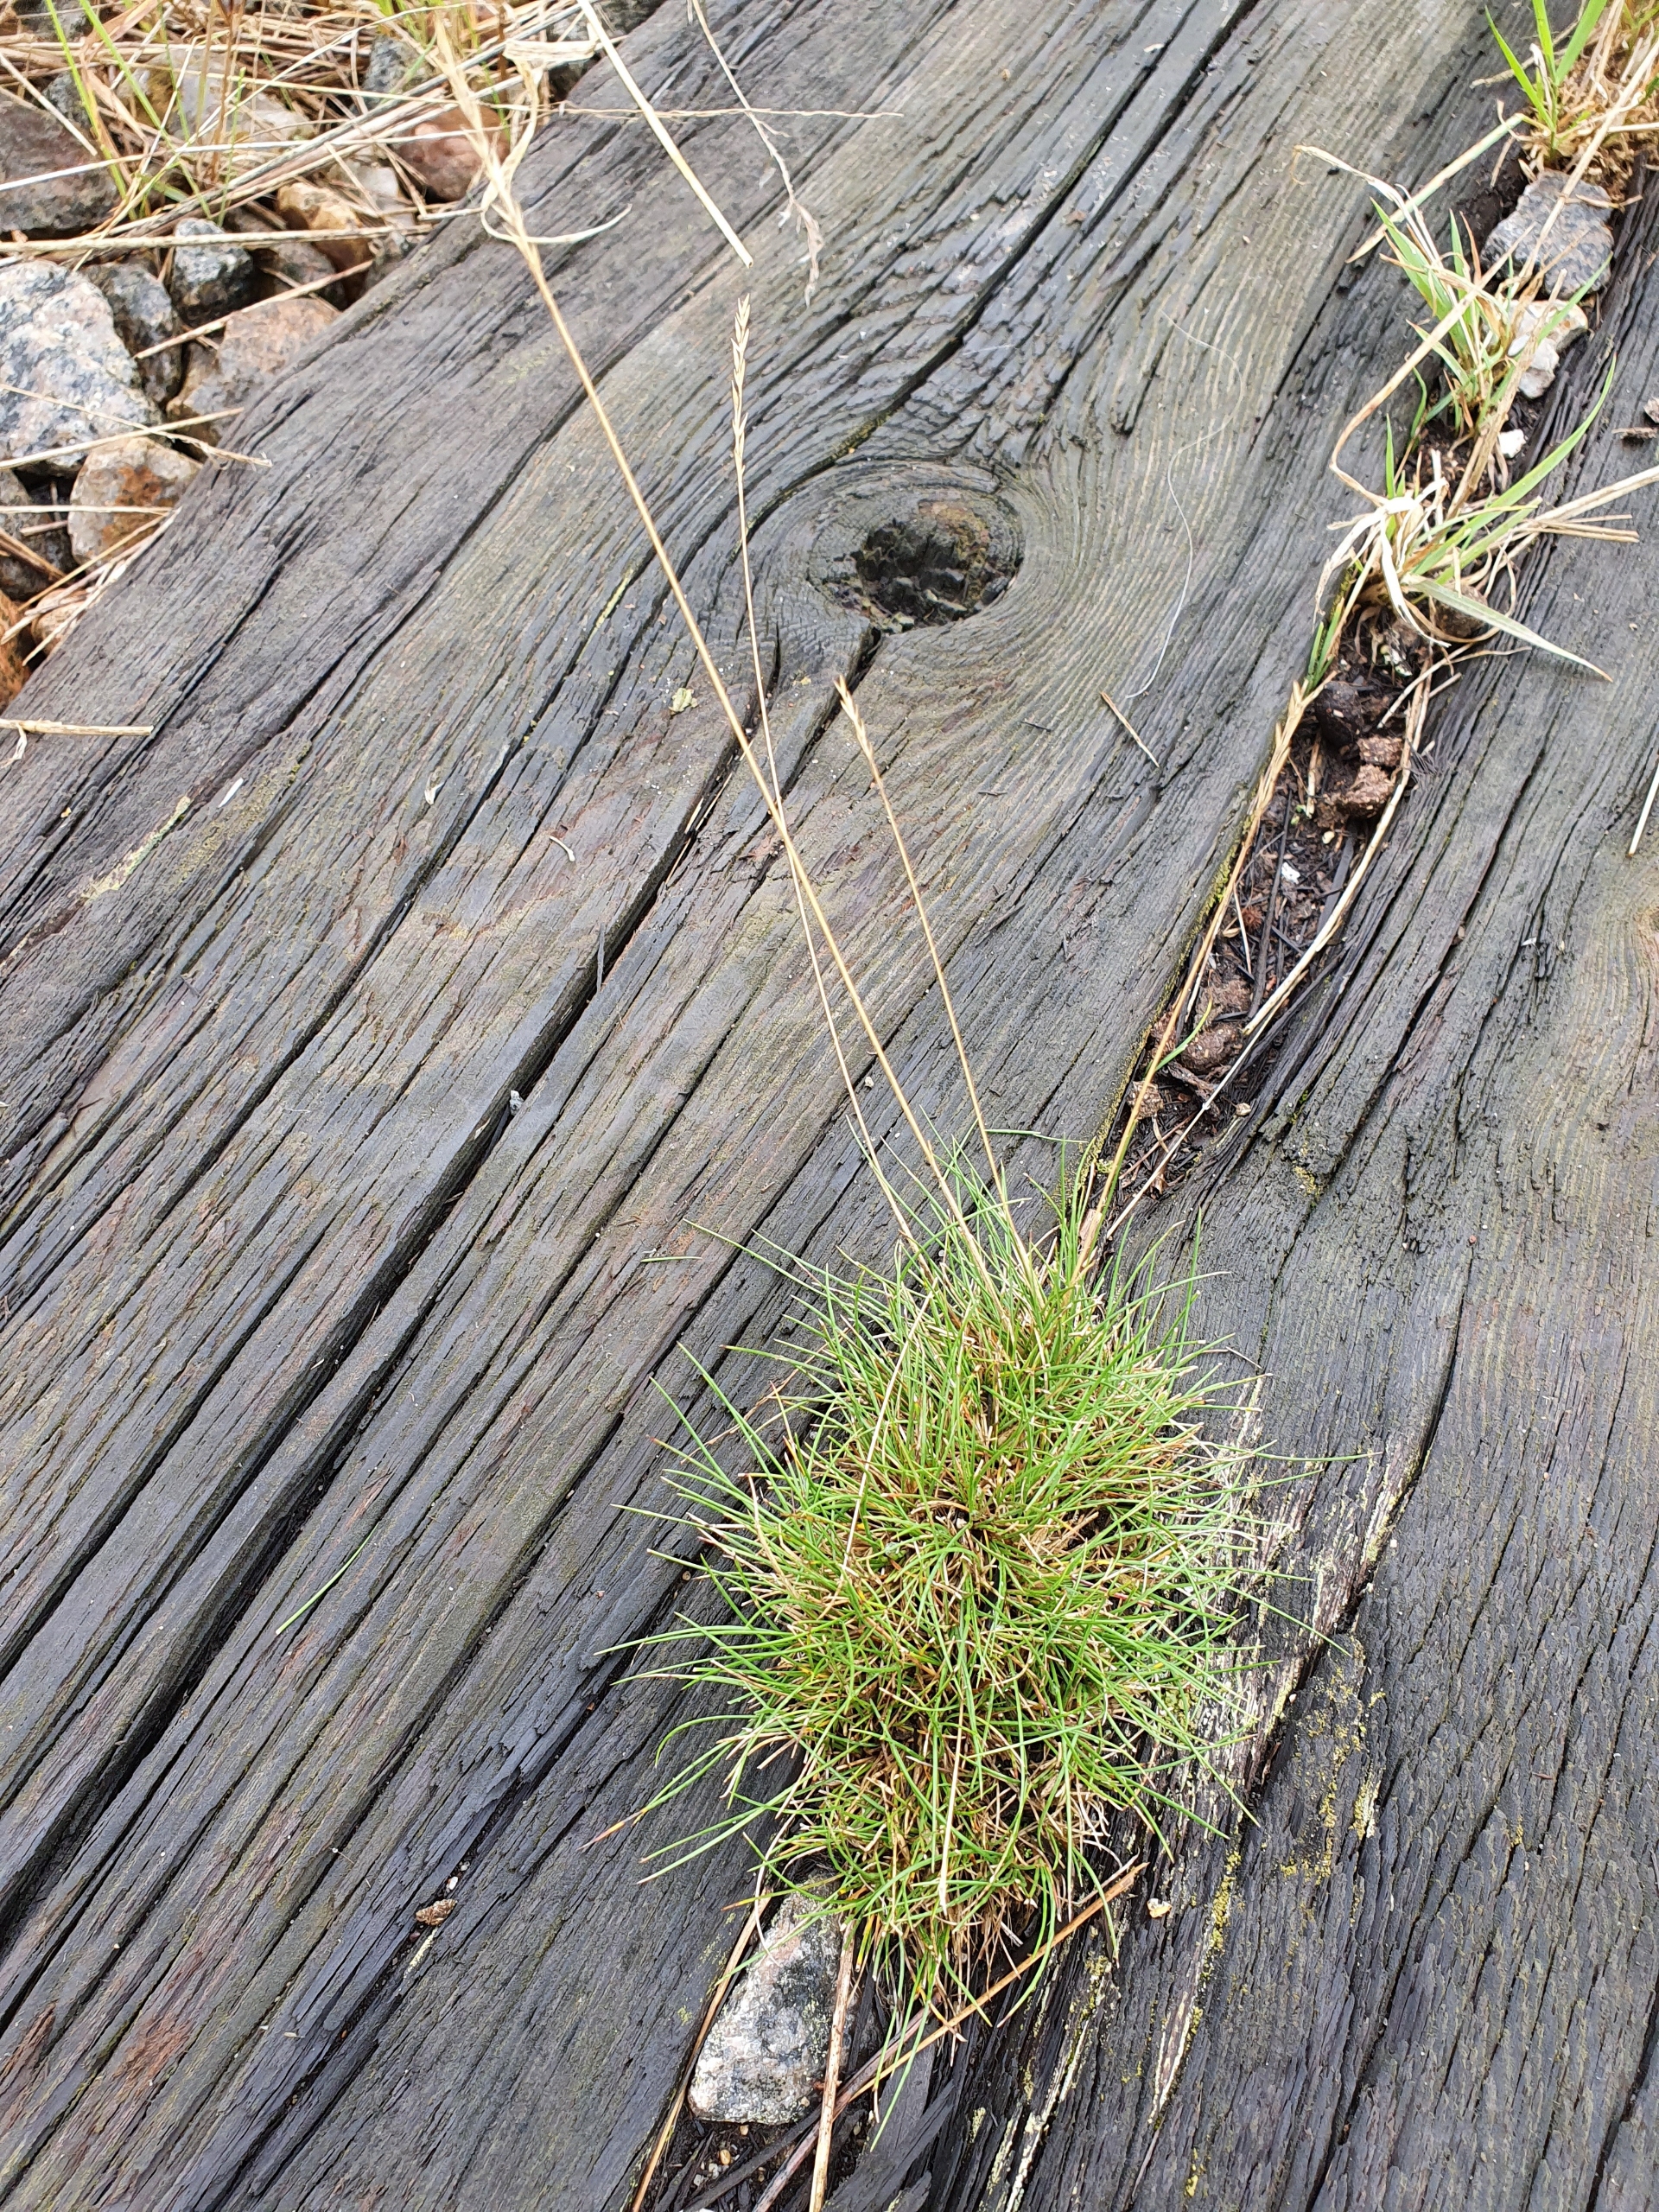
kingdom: Plantae
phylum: Tracheophyta
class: Liliopsida
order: Poales
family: Poaceae
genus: Festuca
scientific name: Festuca ovina
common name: Fåre-svingel
